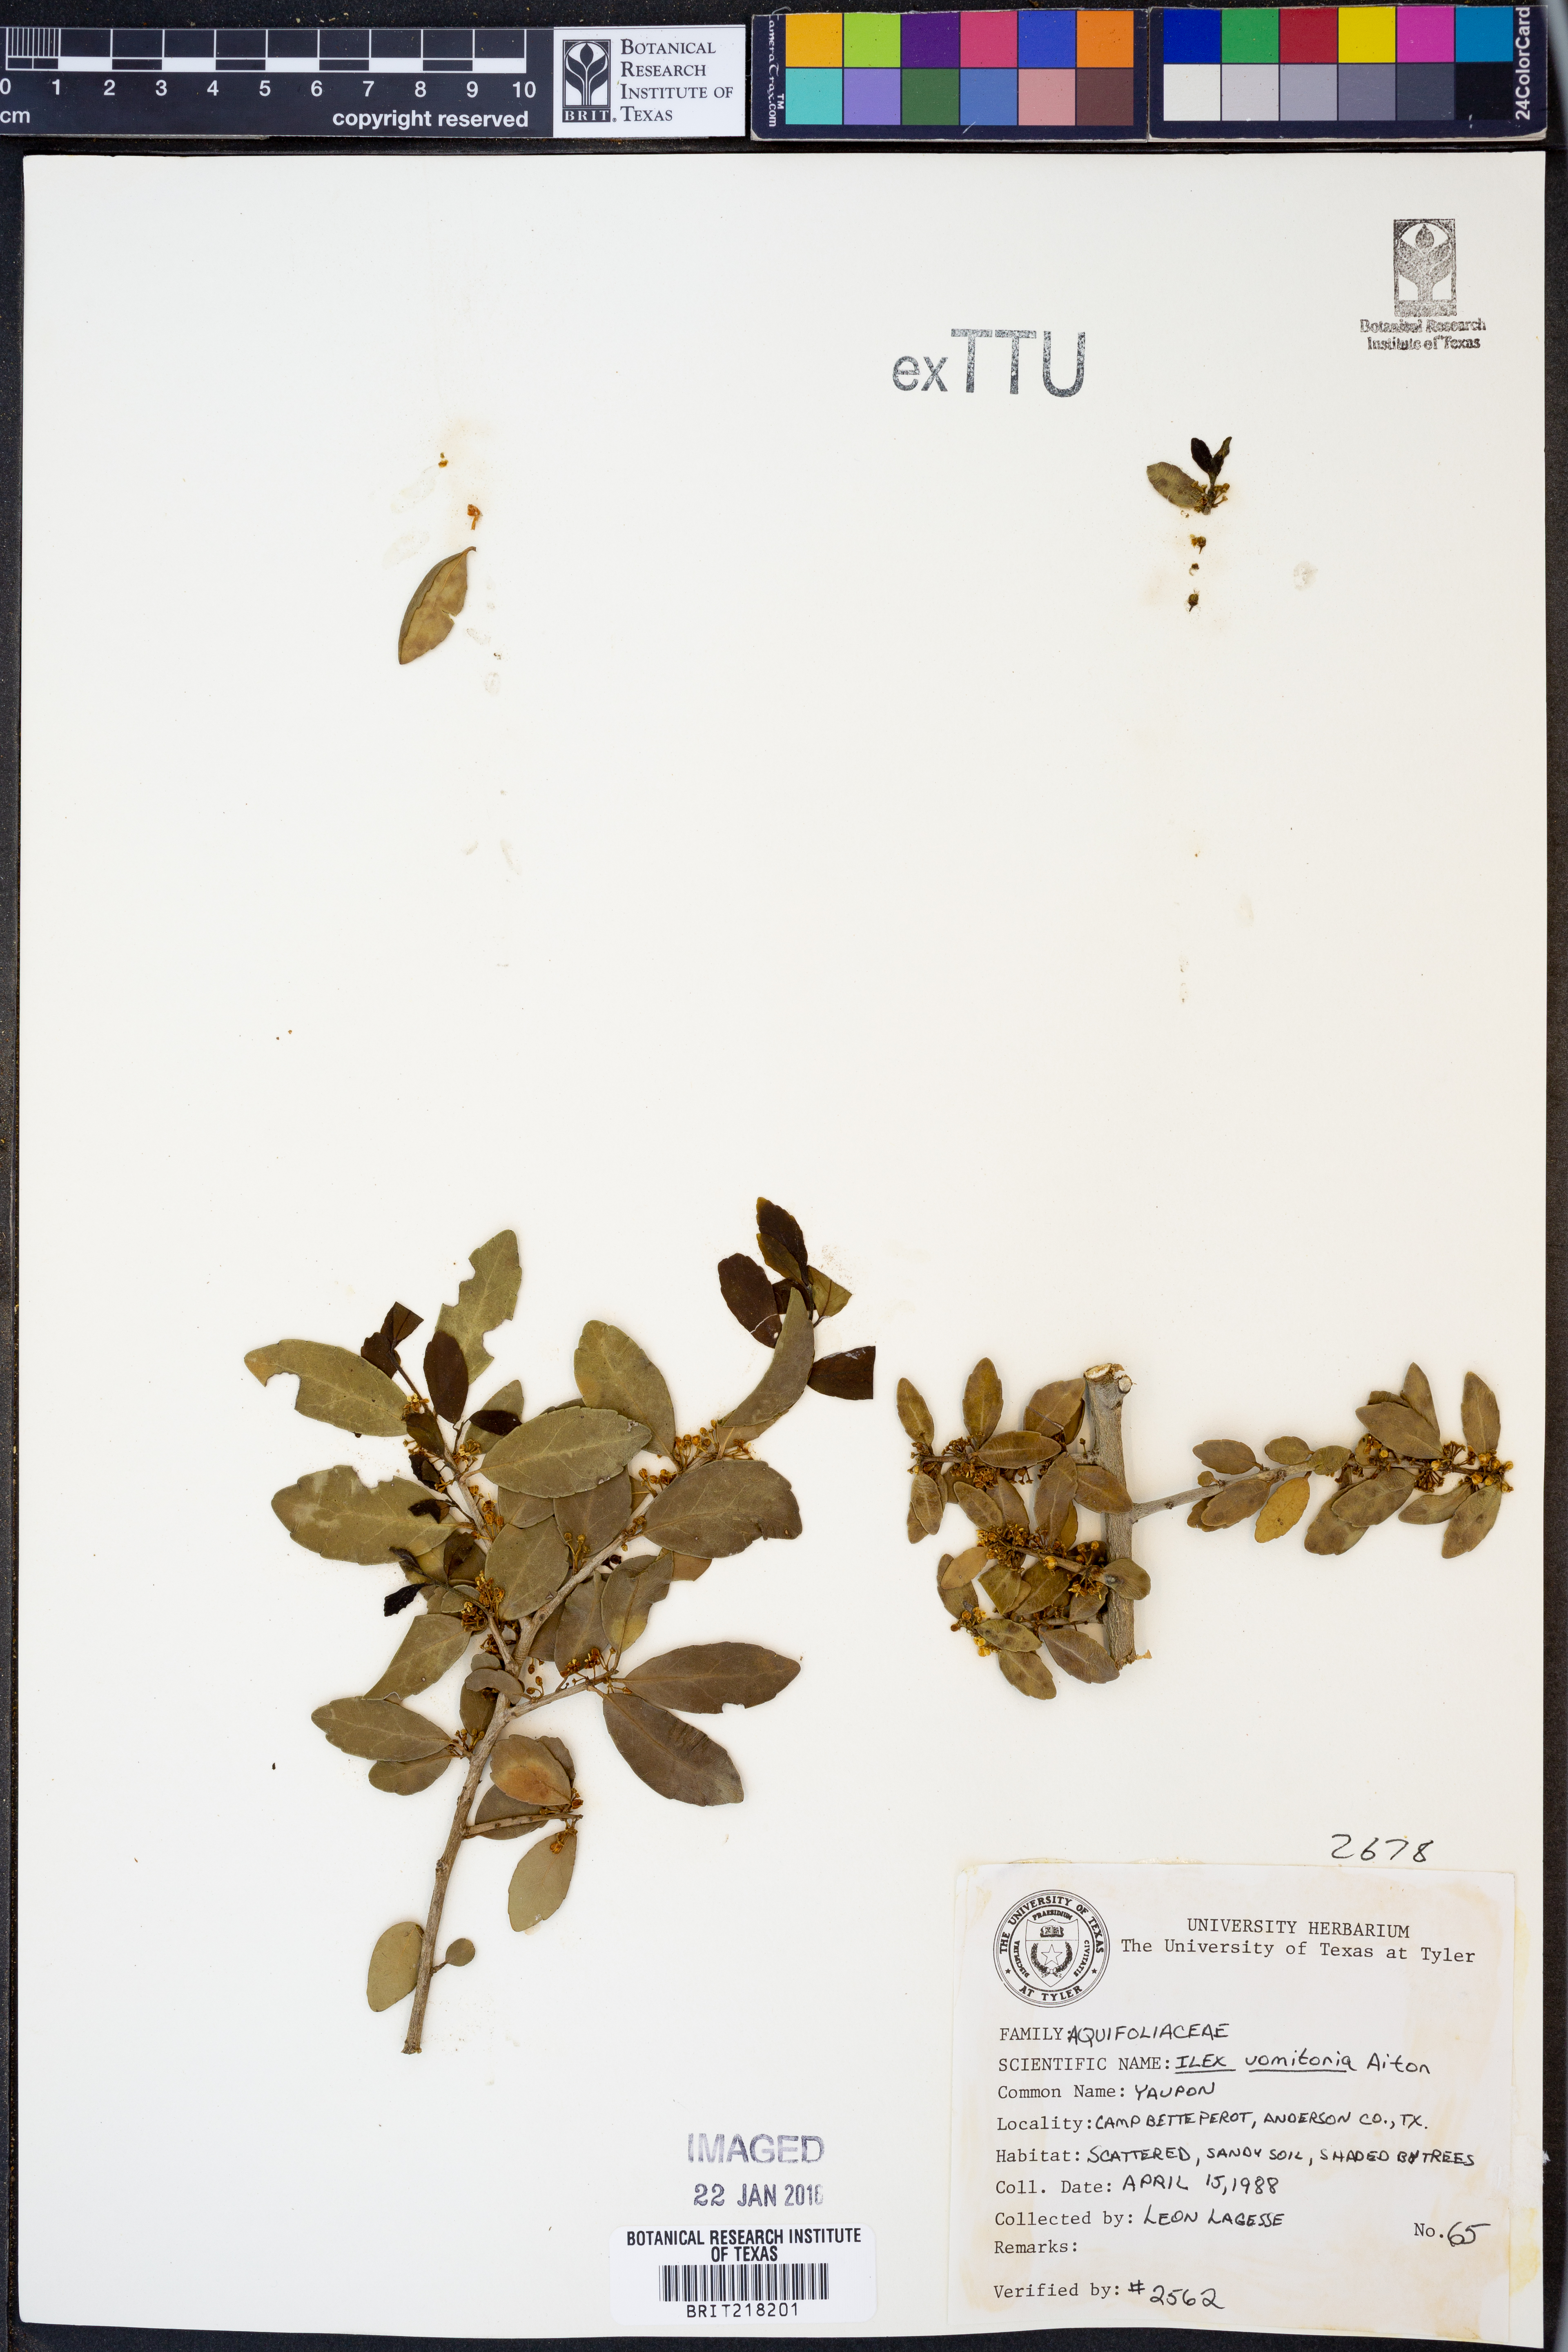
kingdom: Plantae
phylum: Tracheophyta
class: Magnoliopsida
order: Aquifoliales
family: Aquifoliaceae
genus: Ilex
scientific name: Ilex vomitoria
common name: Yaupon holly
